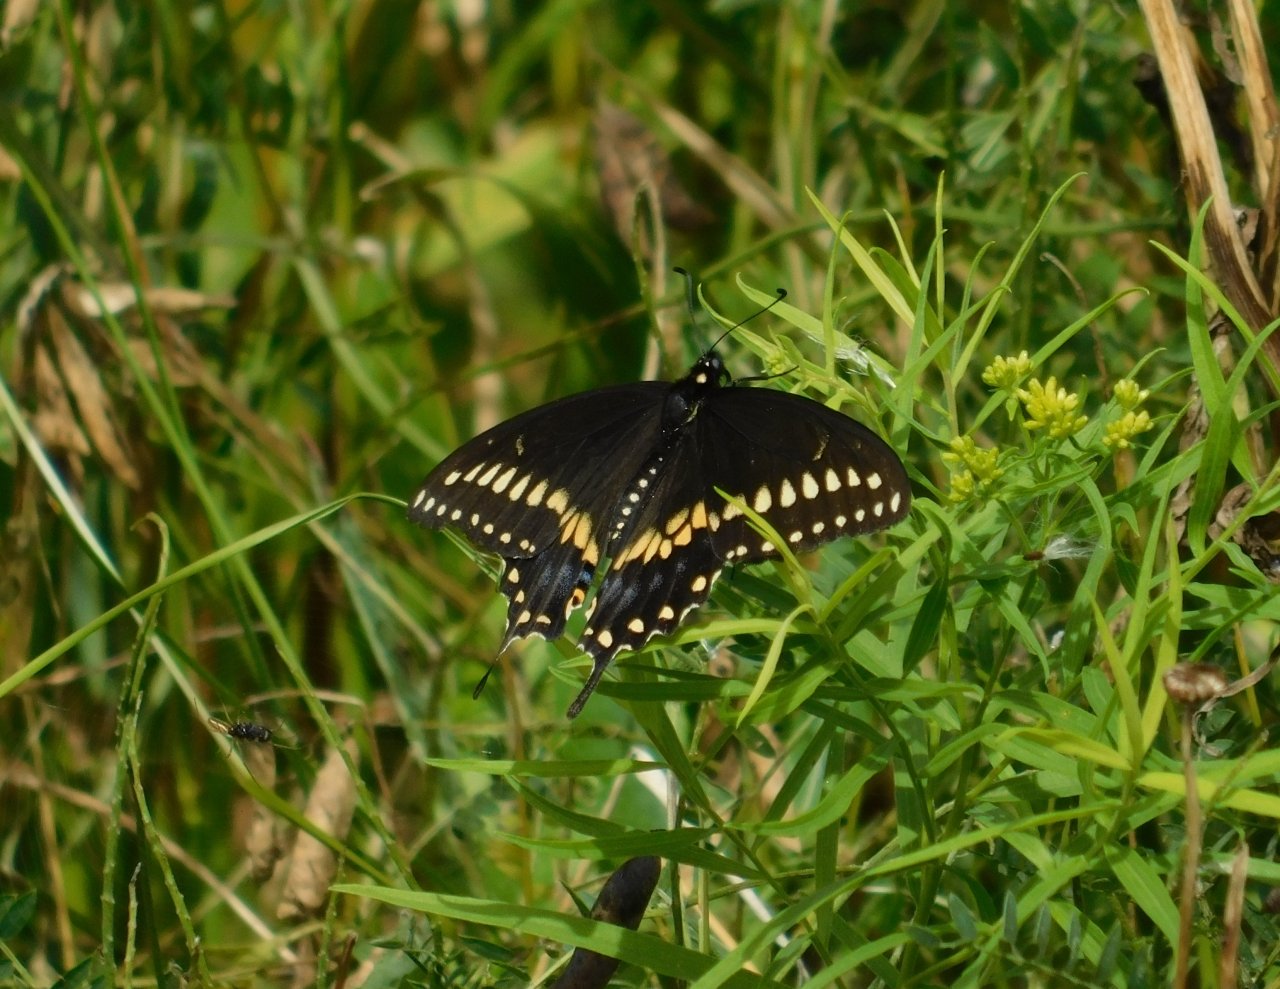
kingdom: Animalia
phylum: Arthropoda
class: Insecta
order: Lepidoptera
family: Papilionidae
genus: Papilio
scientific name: Papilio polyxenes
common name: Black Swallowtail
